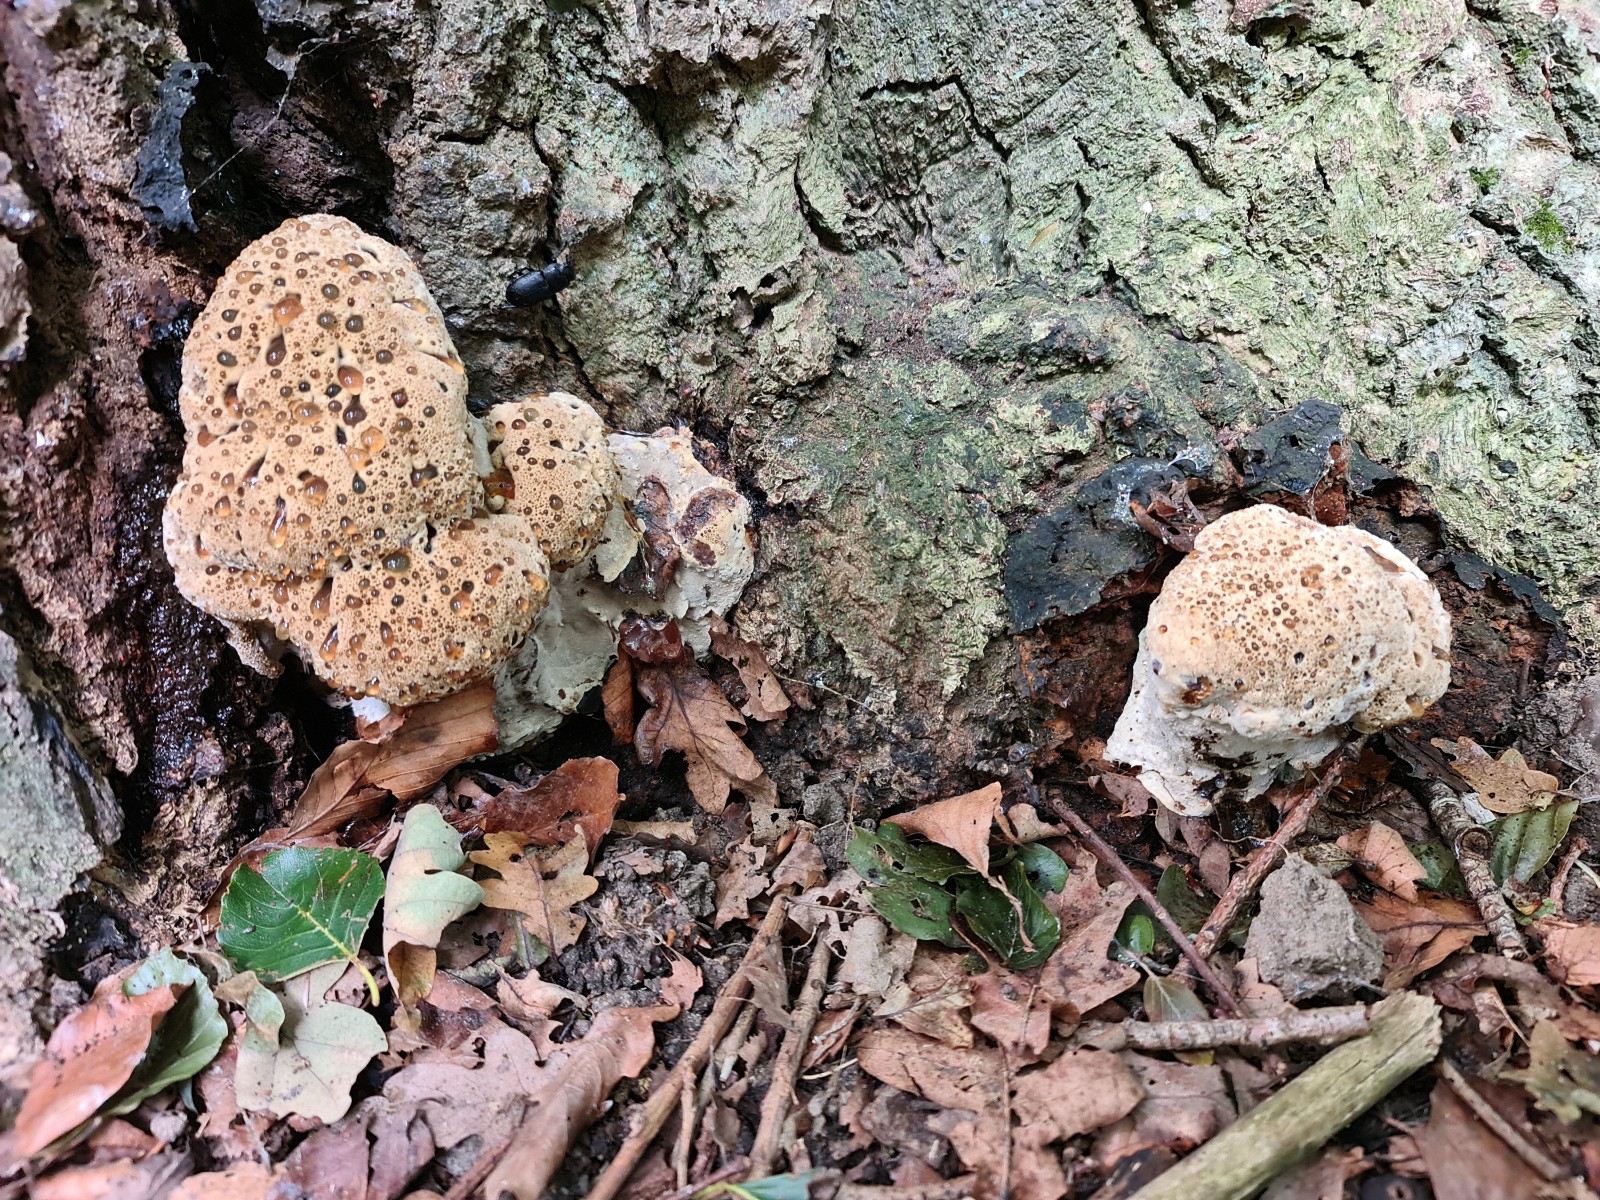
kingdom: Fungi
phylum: Basidiomycota
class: Agaricomycetes
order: Hymenochaetales
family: Hymenochaetaceae
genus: Pseudoinonotus
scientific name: Pseudoinonotus dryadeus
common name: ege-spejlporesvamp
